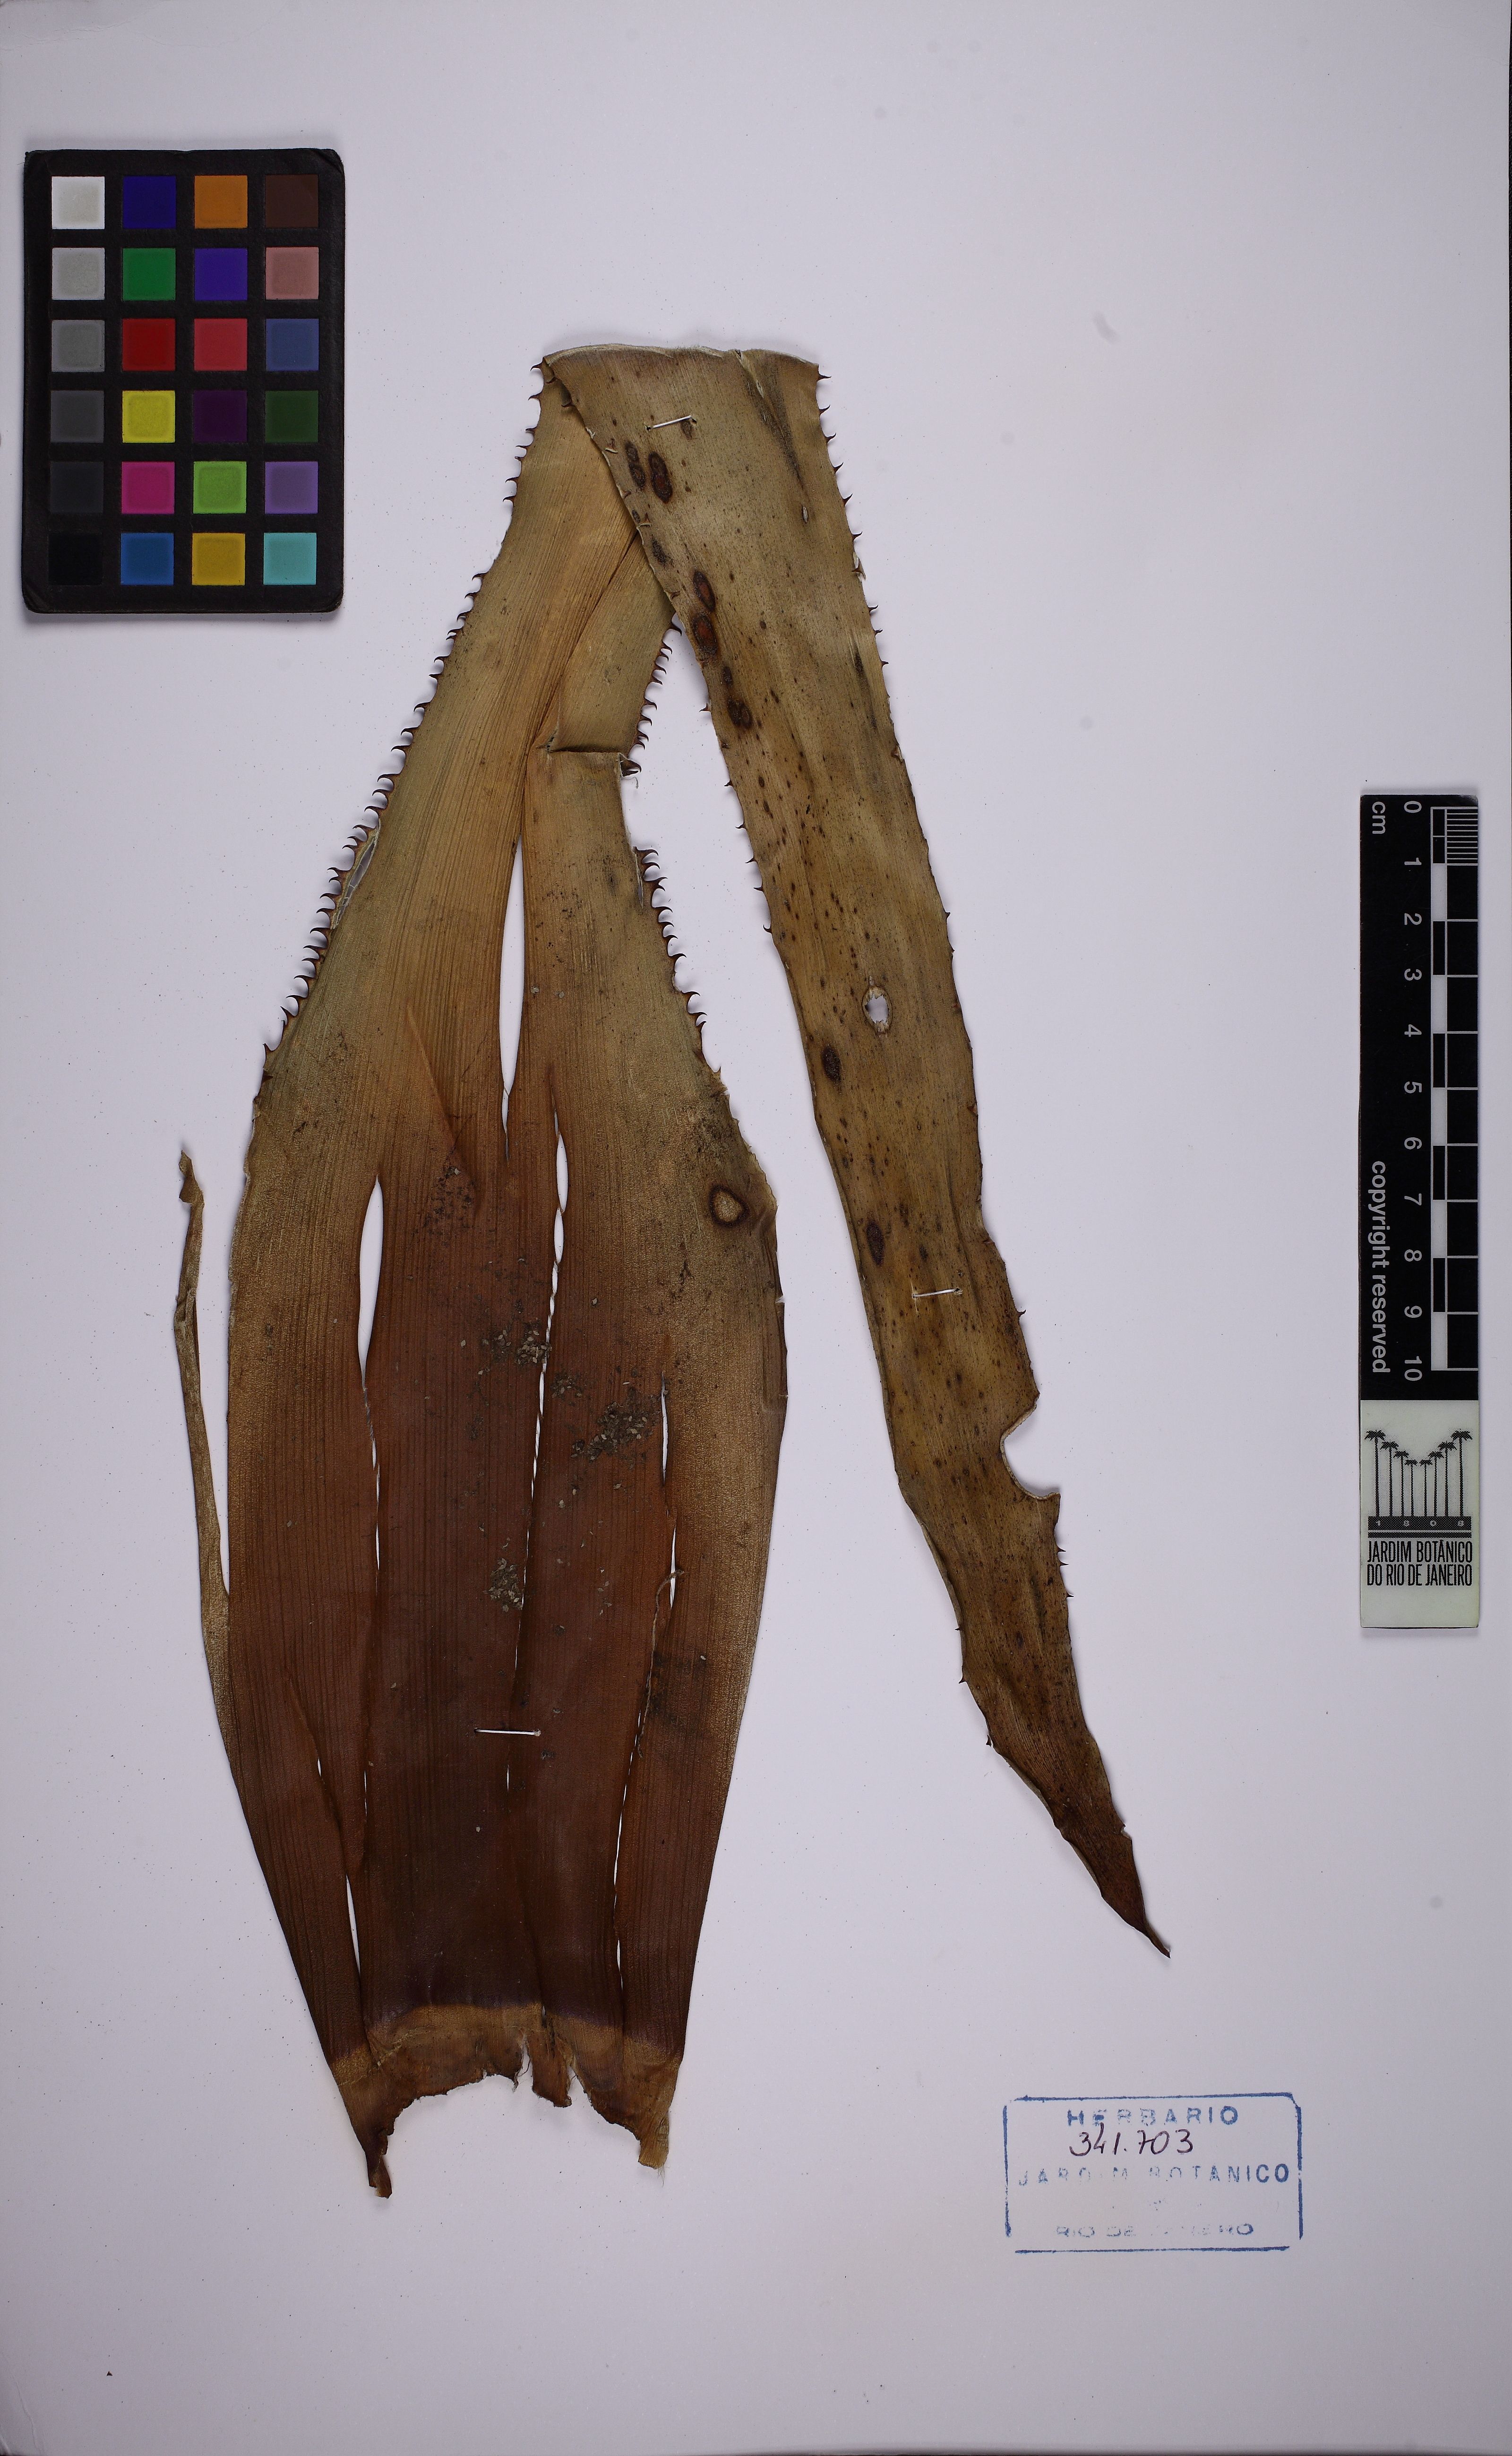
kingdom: Plantae
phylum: Tracheophyta
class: Liliopsida
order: Poales
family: Bromeliaceae
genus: Aechmea
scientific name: Aechmea araneosa
